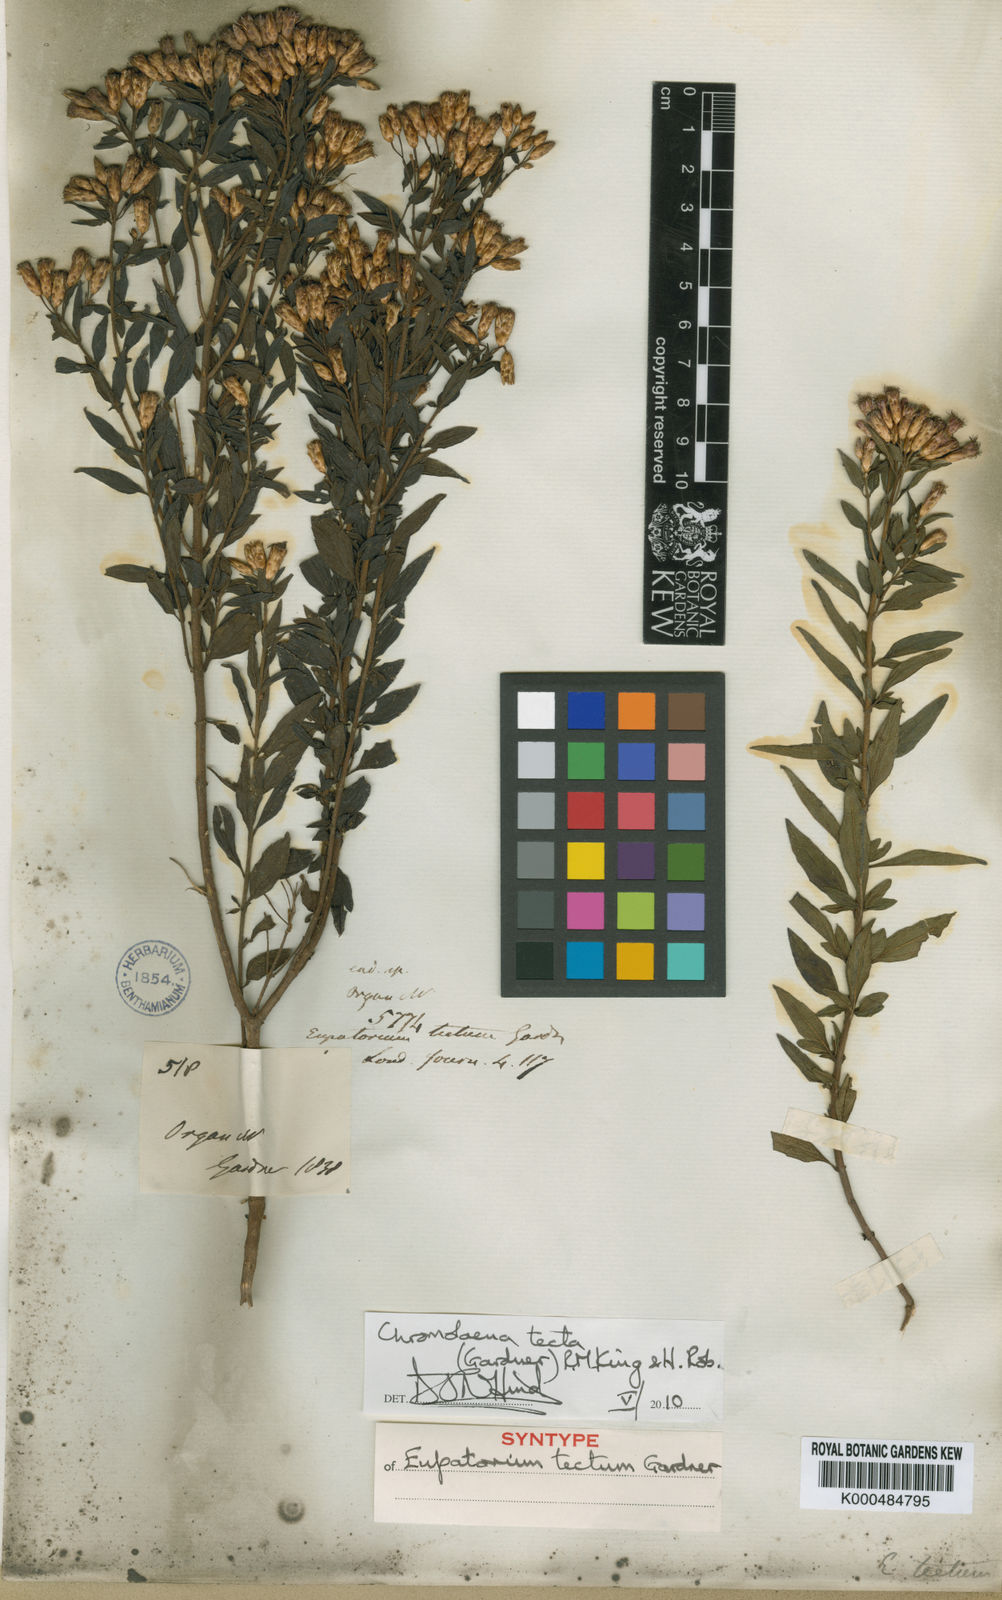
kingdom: Plantae
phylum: Tracheophyta
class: Magnoliopsida
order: Asterales
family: Asteraceae
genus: Chromolaena
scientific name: Chromolaena tecta
